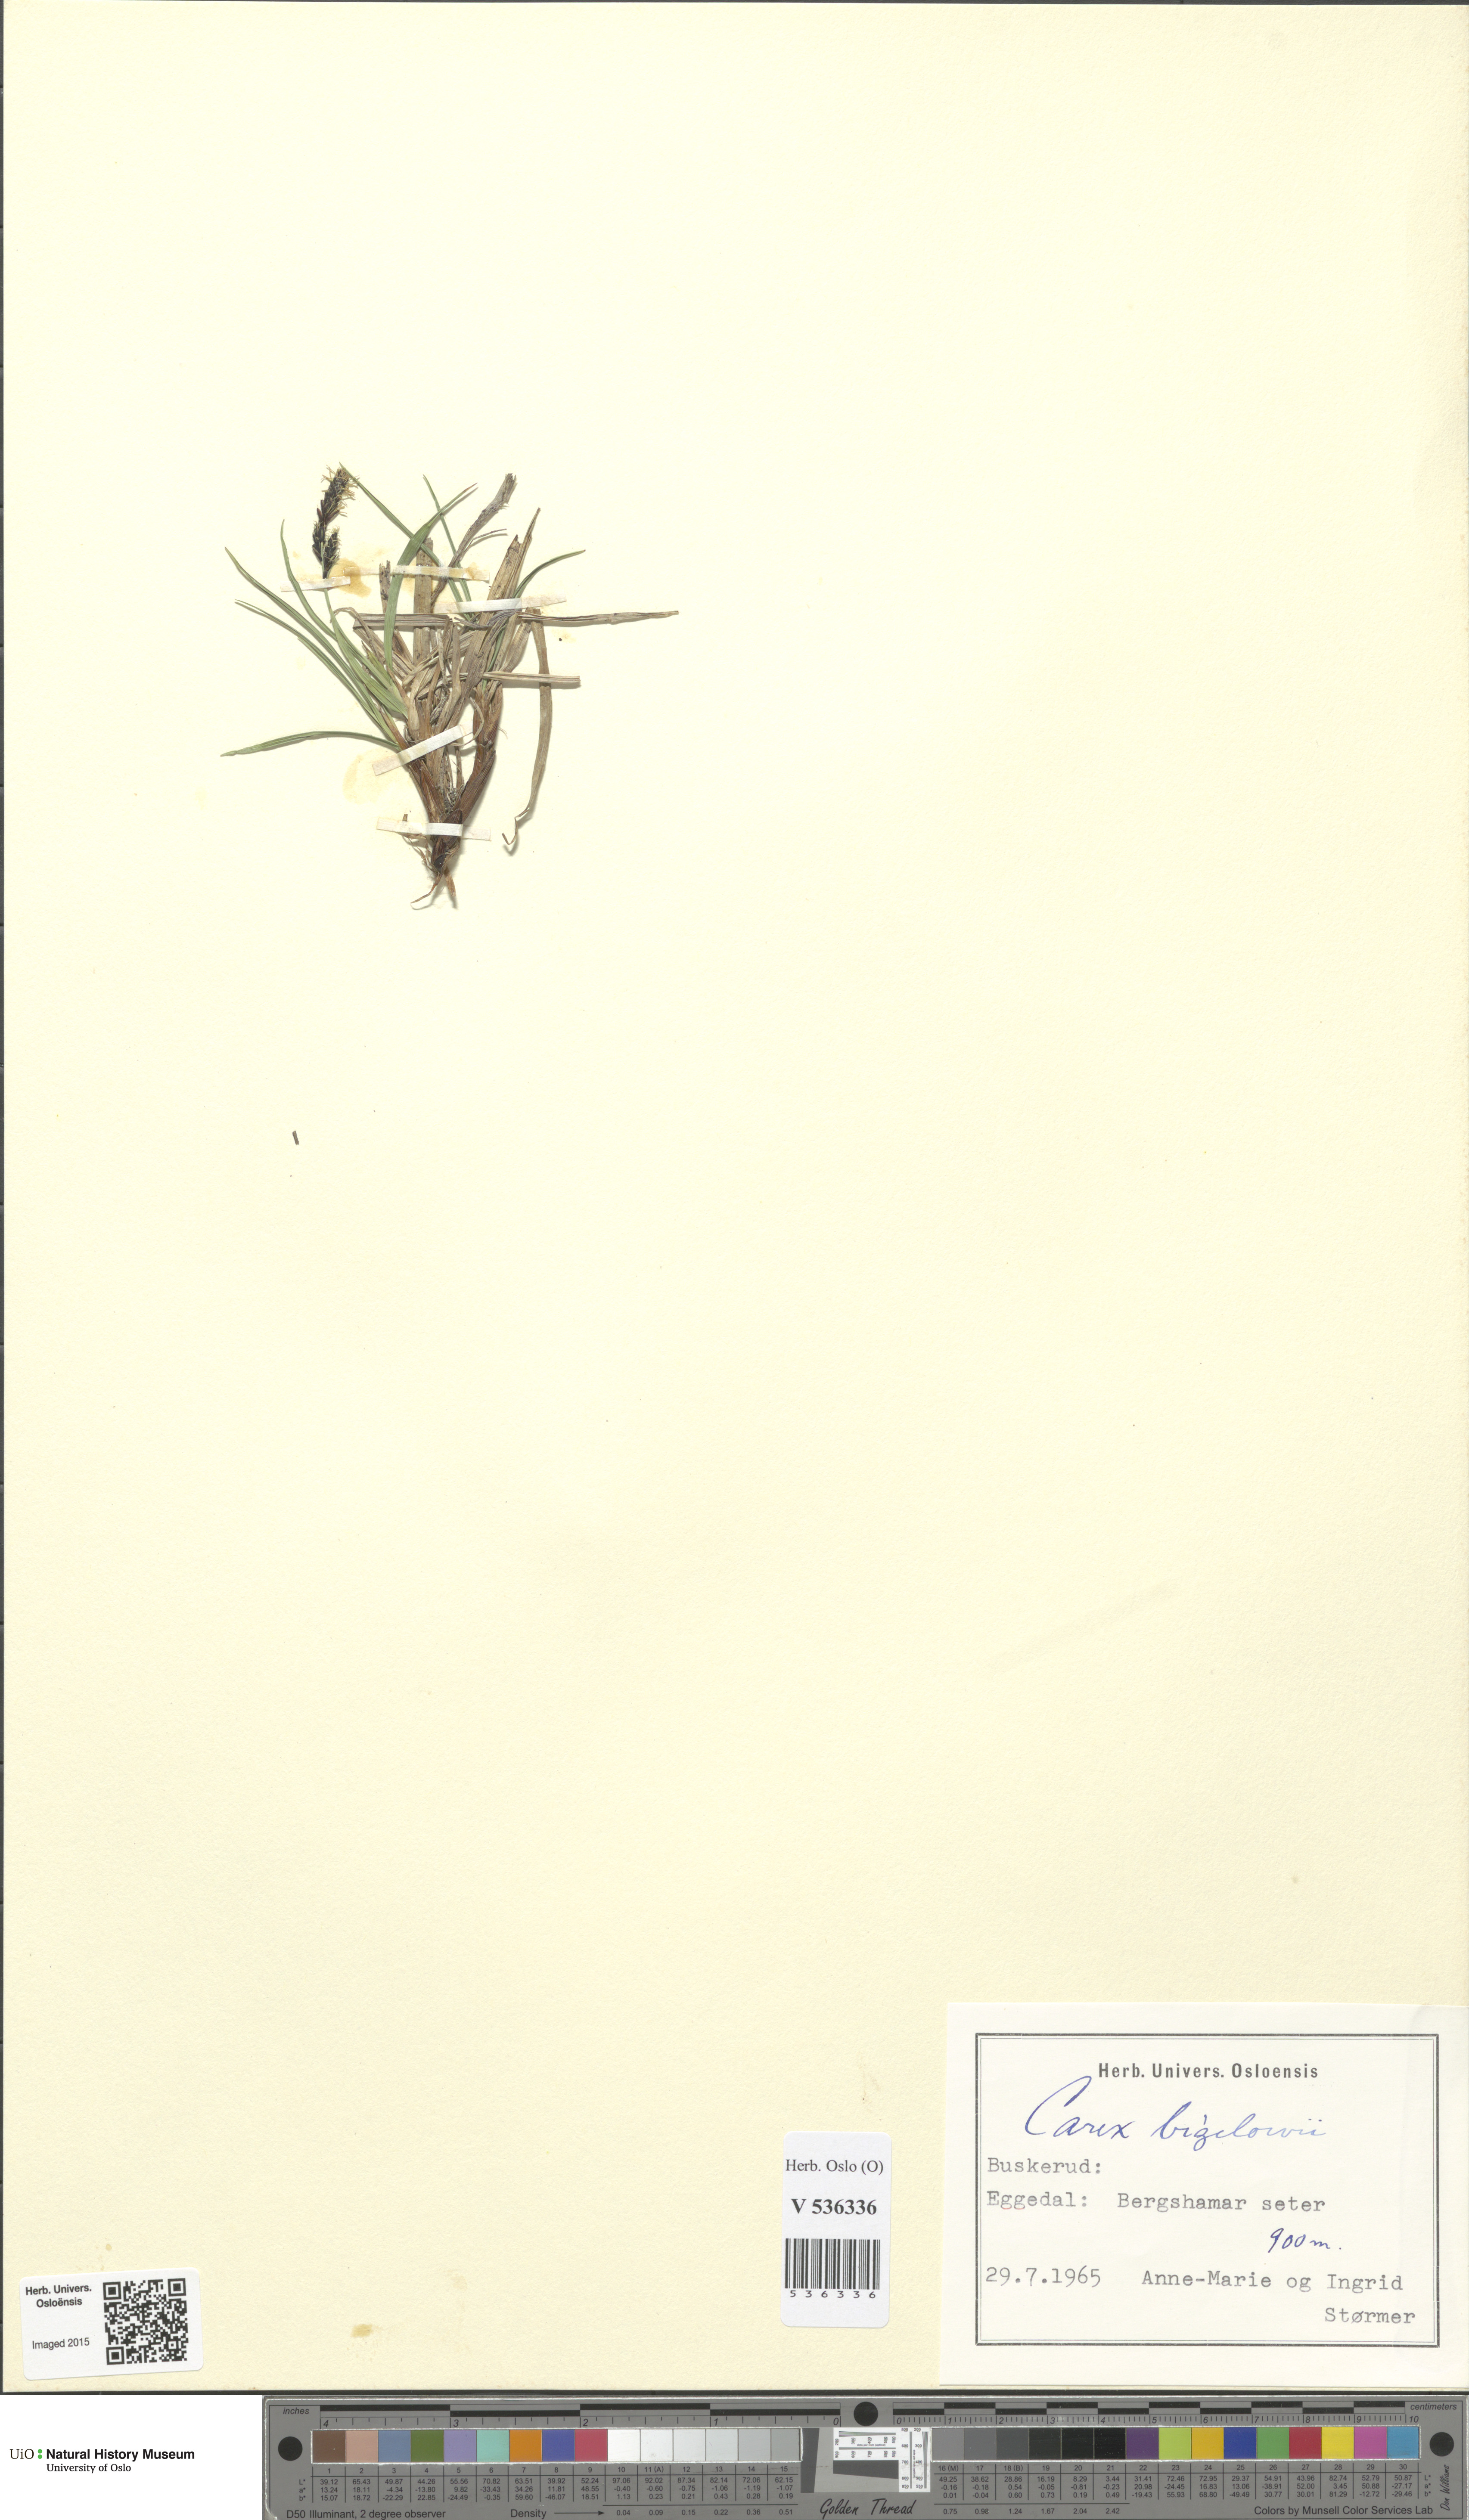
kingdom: Plantae
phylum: Tracheophyta
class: Liliopsida
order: Poales
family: Cyperaceae
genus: Carex
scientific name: Carex bigelowii
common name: Stiff sedge
